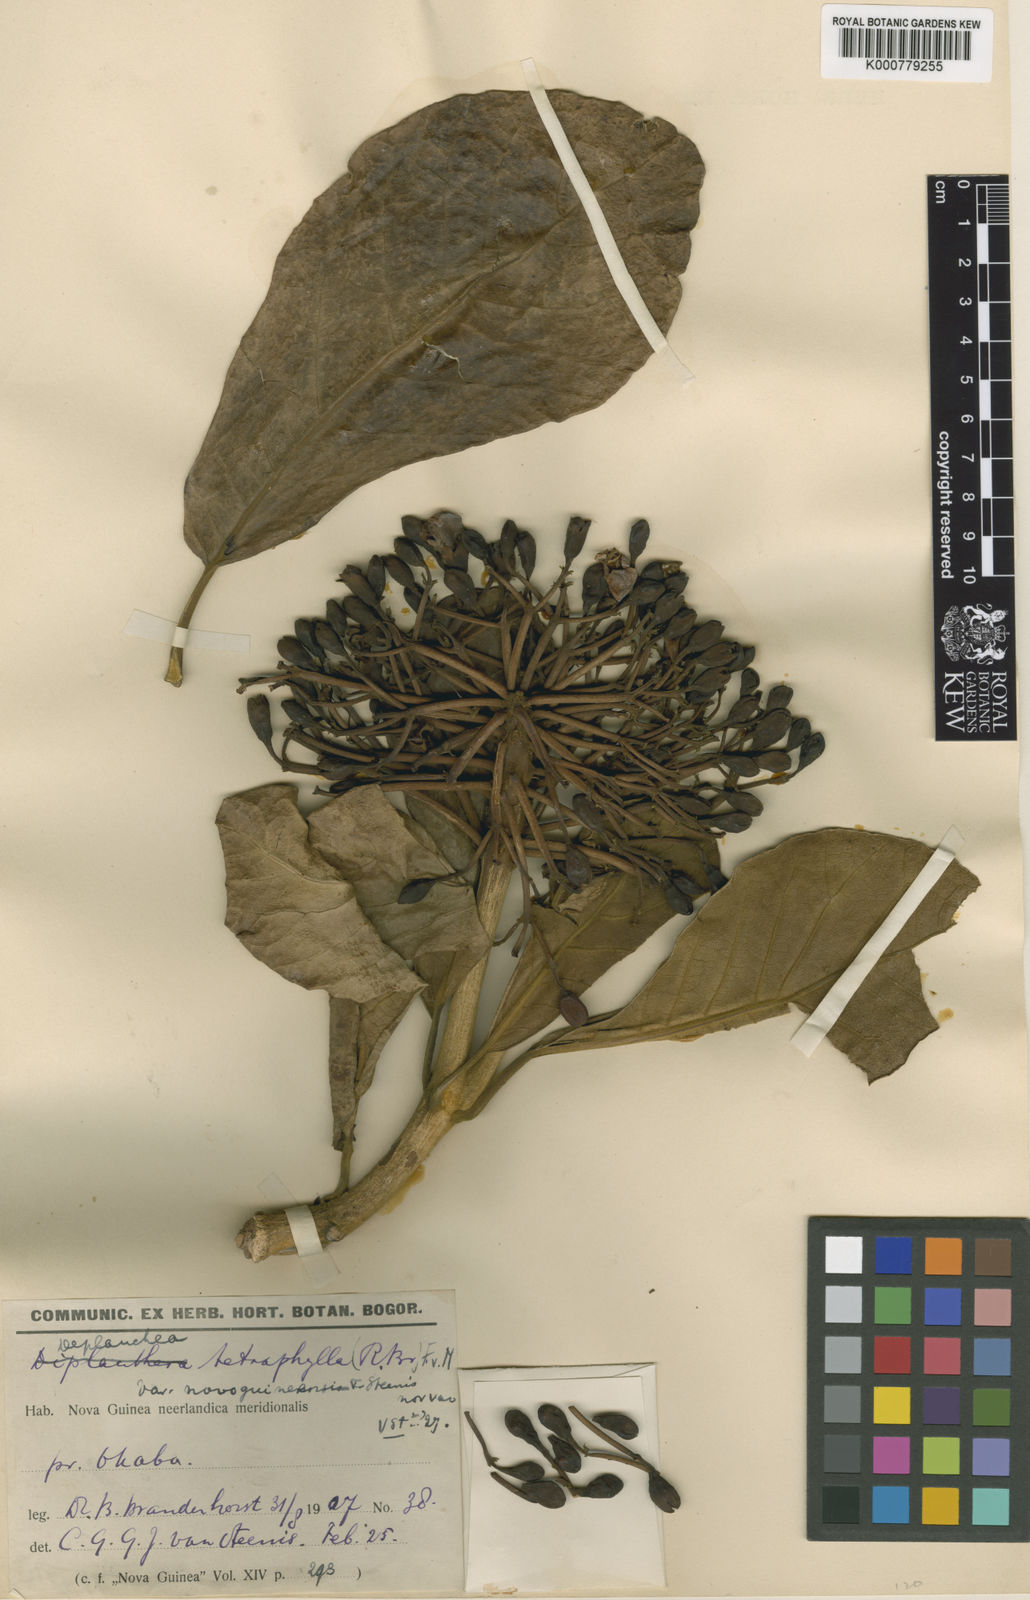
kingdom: Plantae
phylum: Tracheophyta
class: Magnoliopsida
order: Lamiales
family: Bignoniaceae
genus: Deplanchea
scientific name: Deplanchea
